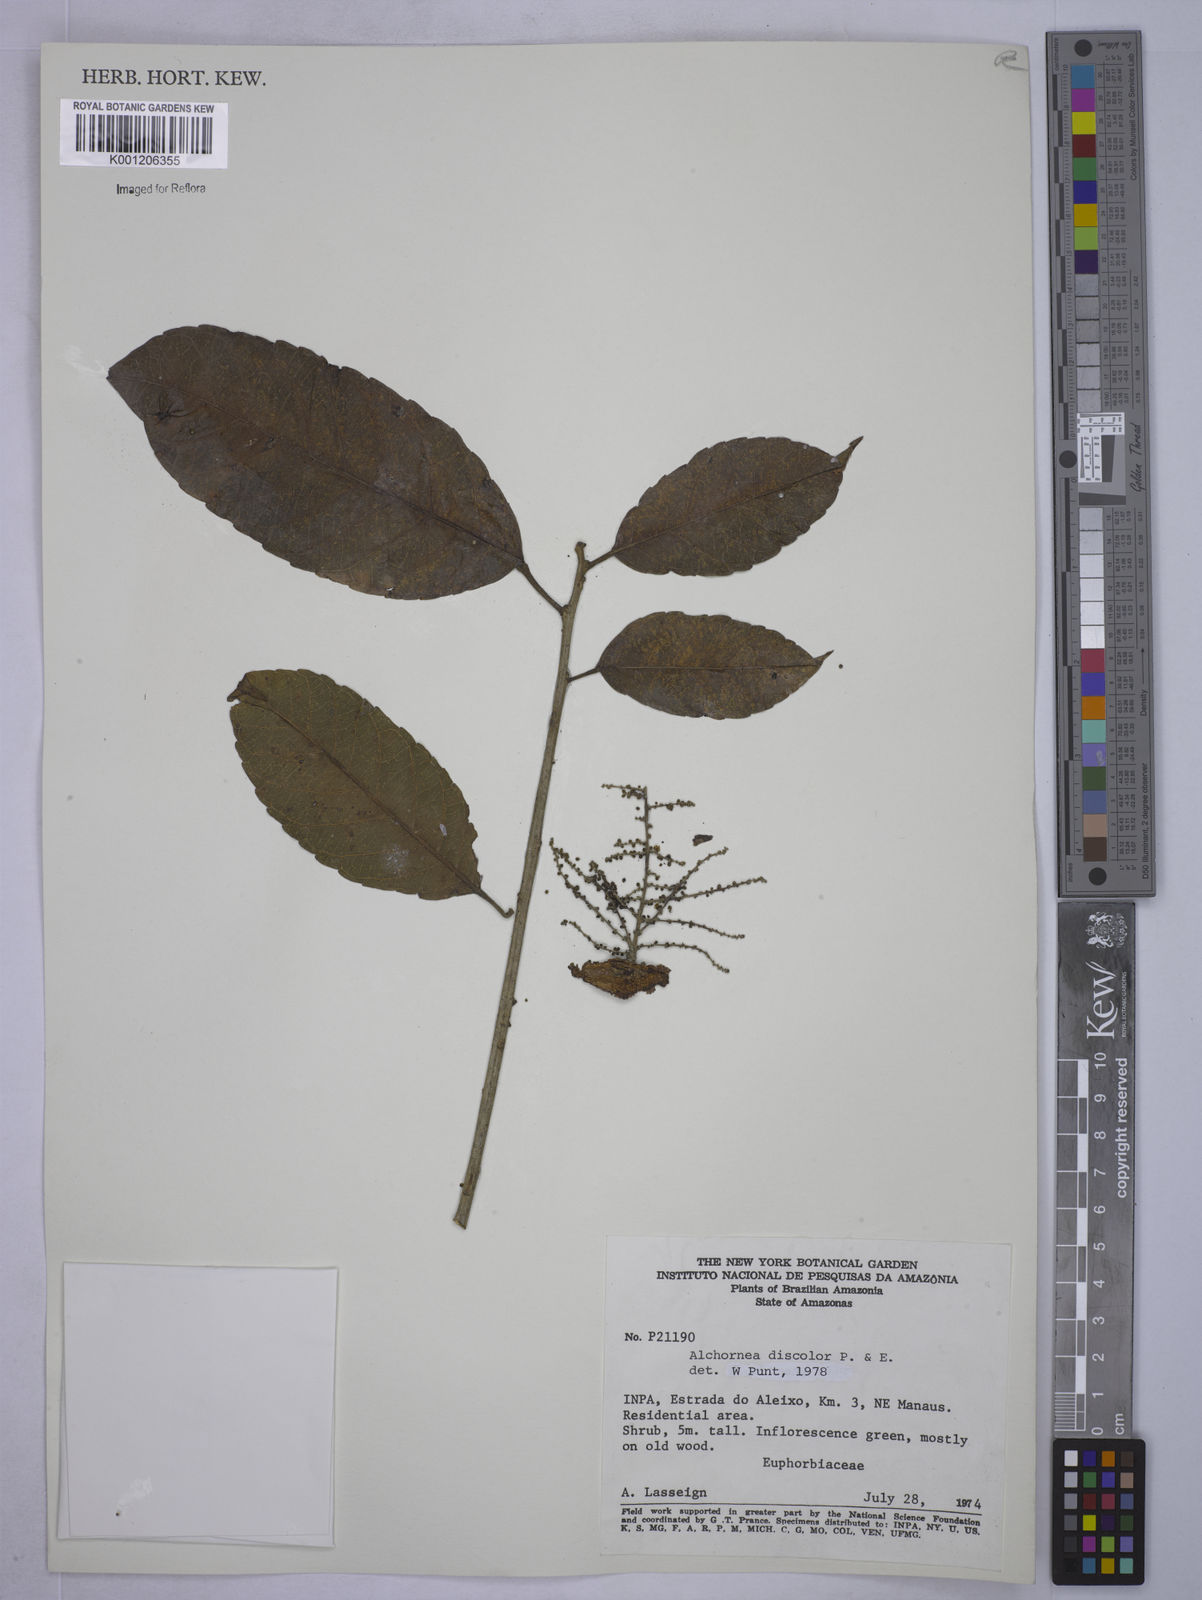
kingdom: Plantae
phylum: Tracheophyta
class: Magnoliopsida
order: Malpighiales
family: Euphorbiaceae
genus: Alchornea
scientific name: Alchornea discolor
